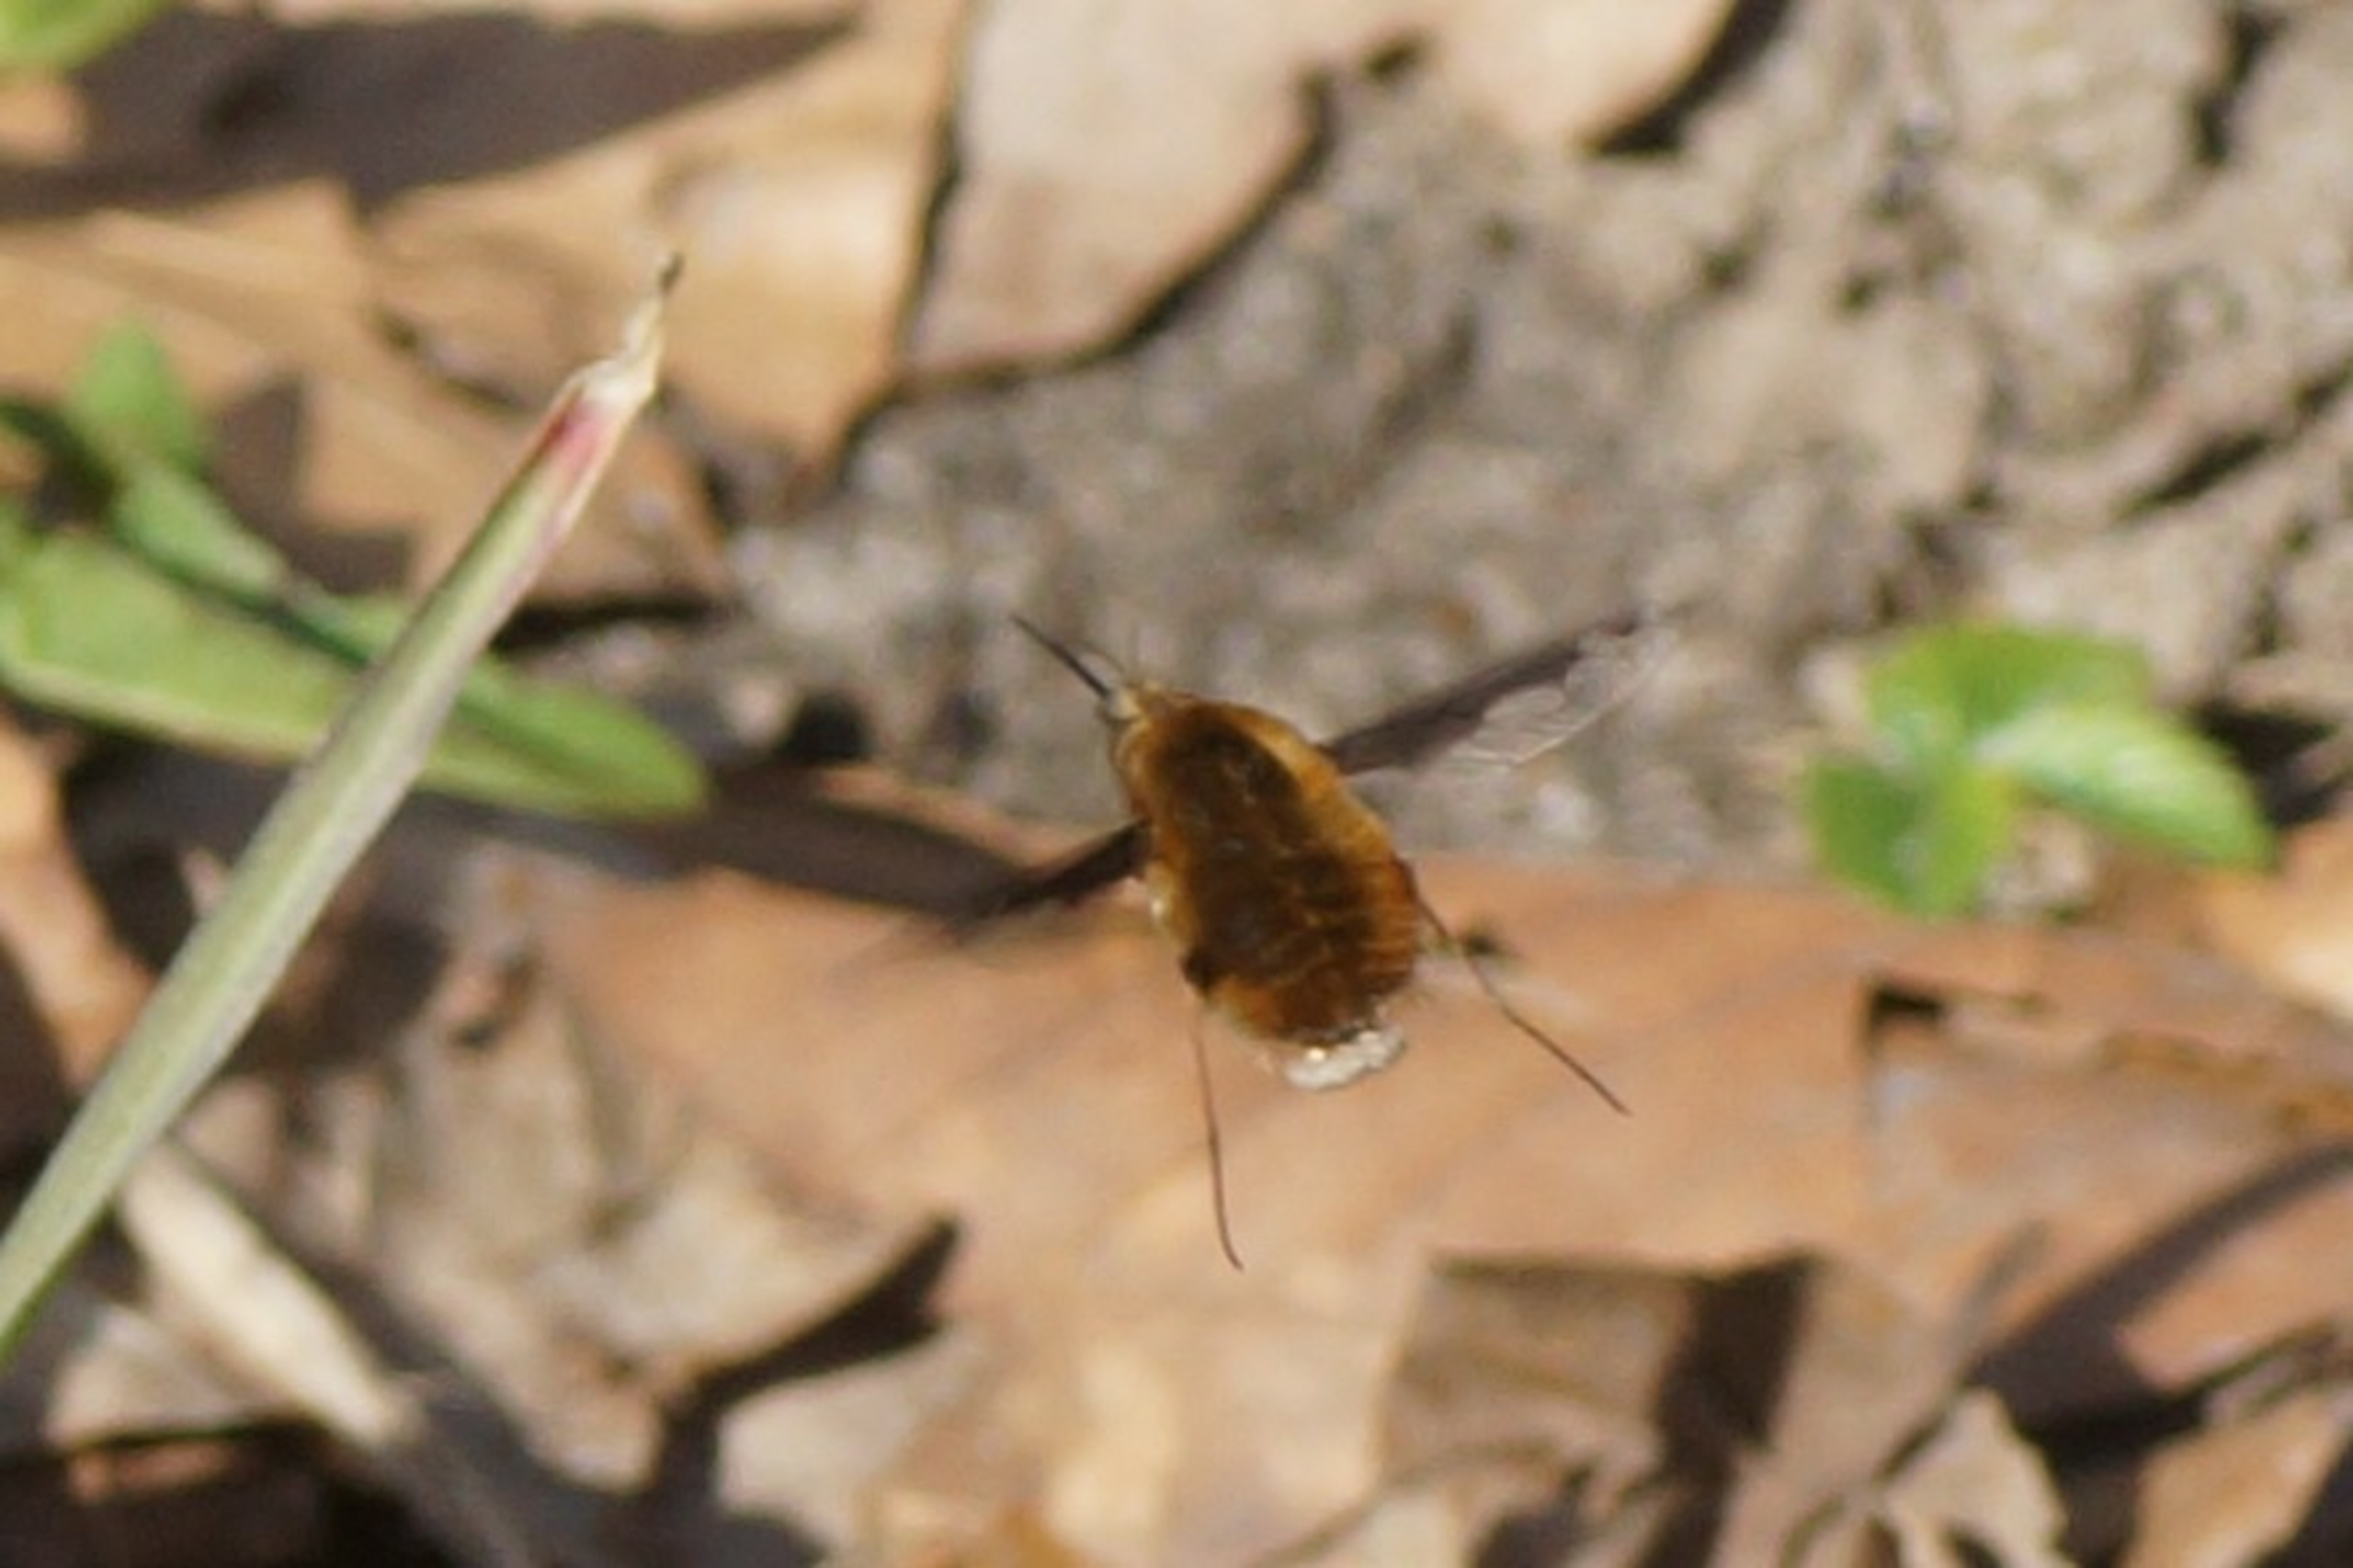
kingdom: Animalia
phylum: Arthropoda
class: Insecta
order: Diptera
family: Bombyliidae
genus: Bombylius
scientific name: Bombylius major
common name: Stor humleflue
